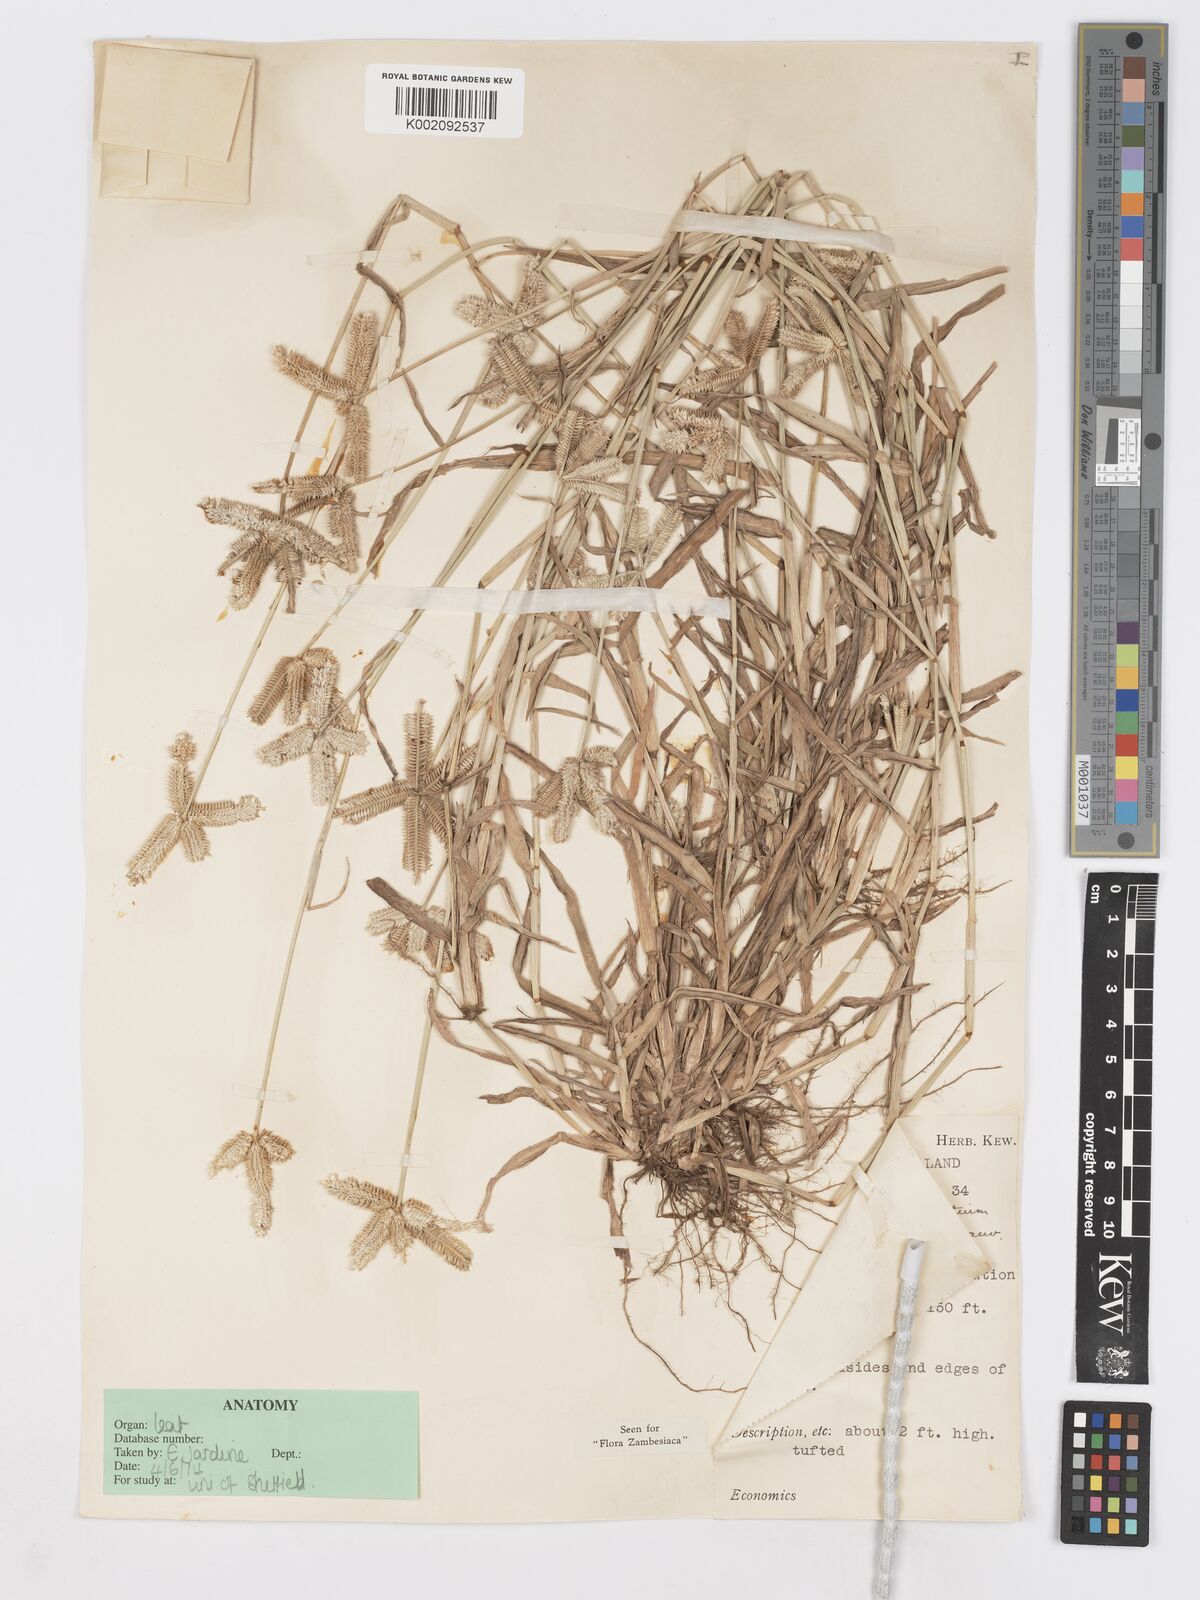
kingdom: Plantae
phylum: Tracheophyta
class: Liliopsida
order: Poales
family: Poaceae
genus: Dactyloctenium
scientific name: Dactyloctenium aegyptium
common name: Egyptian grass
